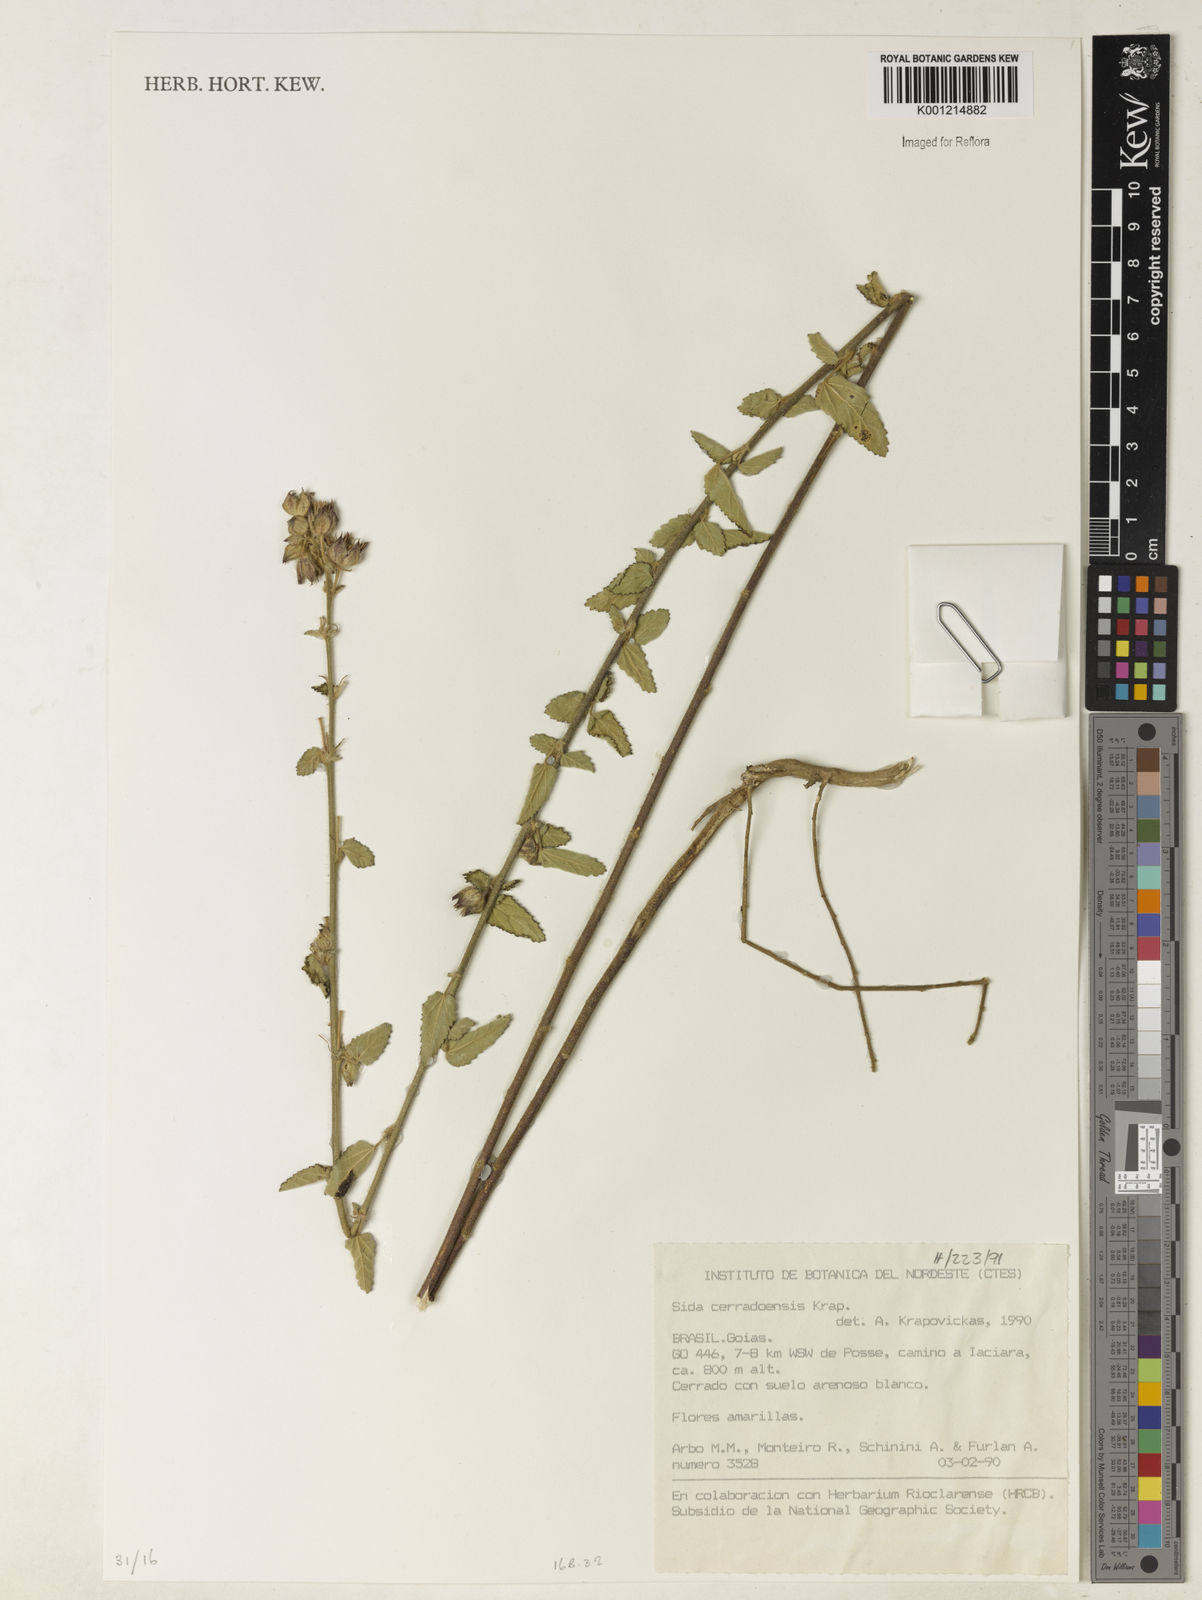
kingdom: Plantae
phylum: Tracheophyta
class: Magnoliopsida
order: Malvales
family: Malvaceae
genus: Sida
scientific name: Sida cerradoensis
